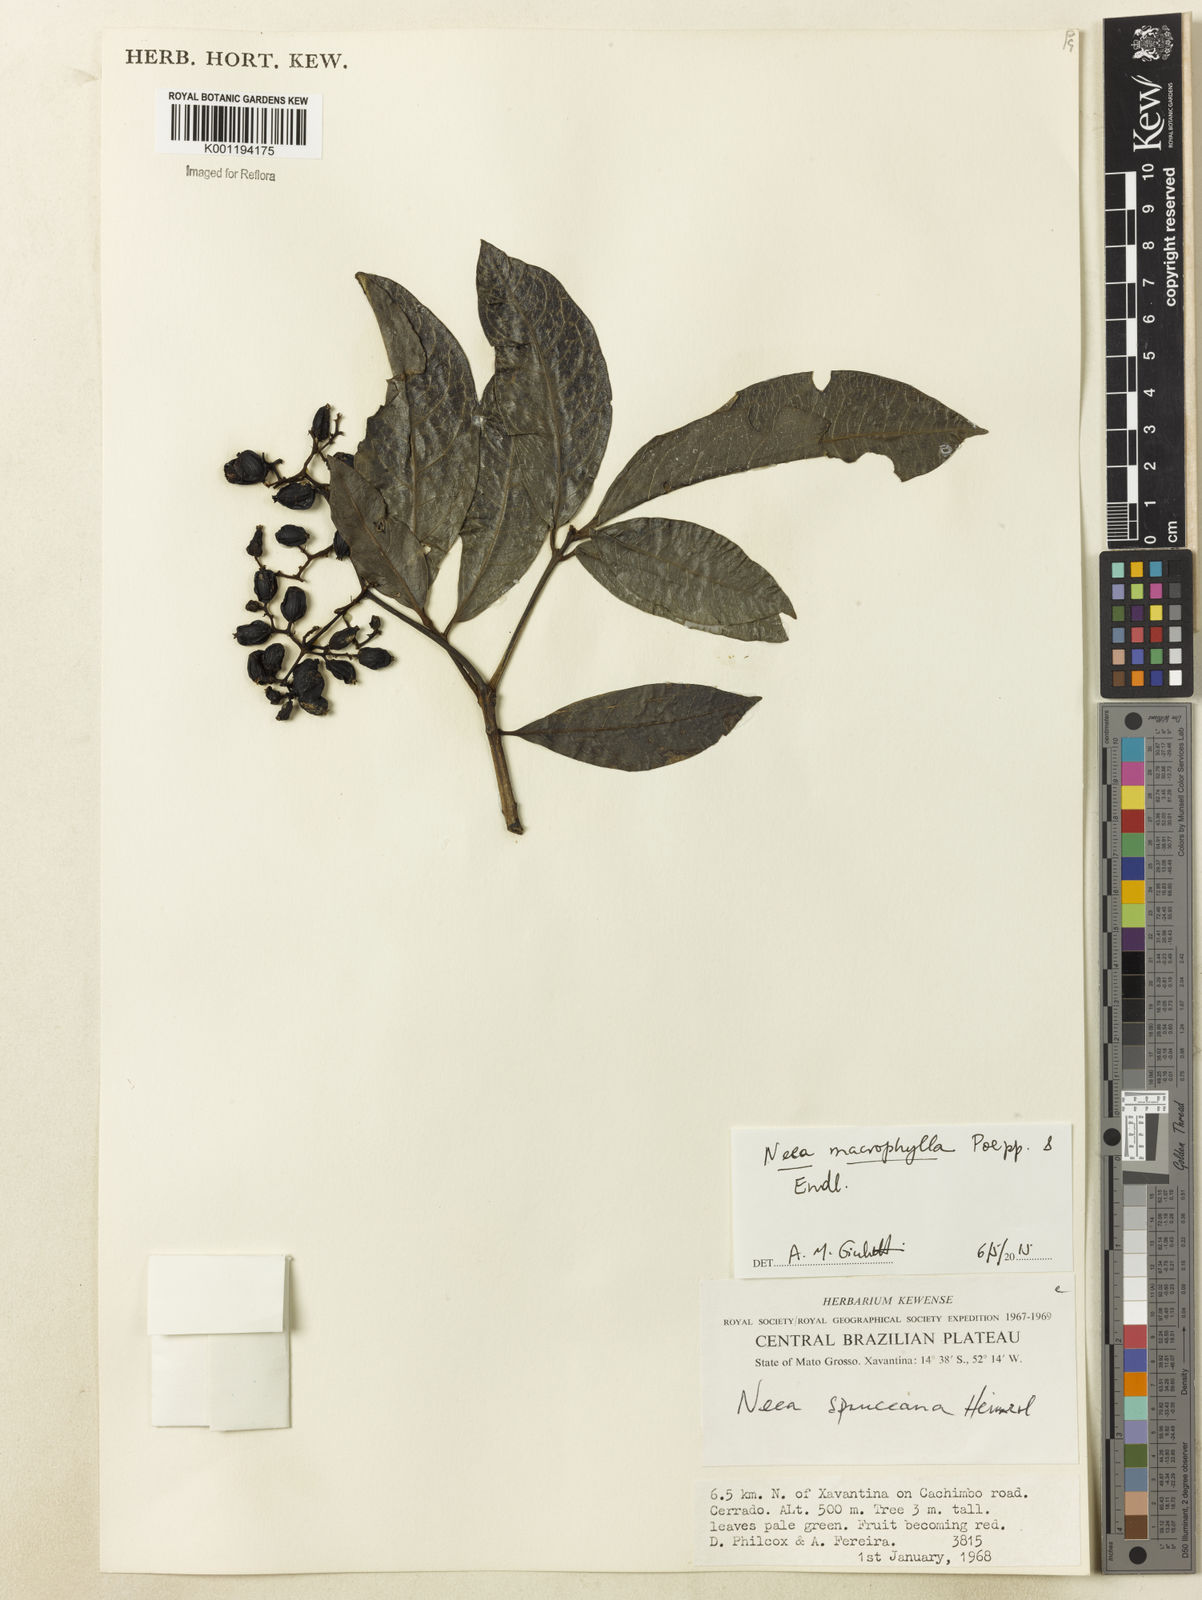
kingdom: Plantae
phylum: Tracheophyta
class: Magnoliopsida
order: Caryophyllales
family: Nyctaginaceae
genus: Neea
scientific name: Neea macrophylla
